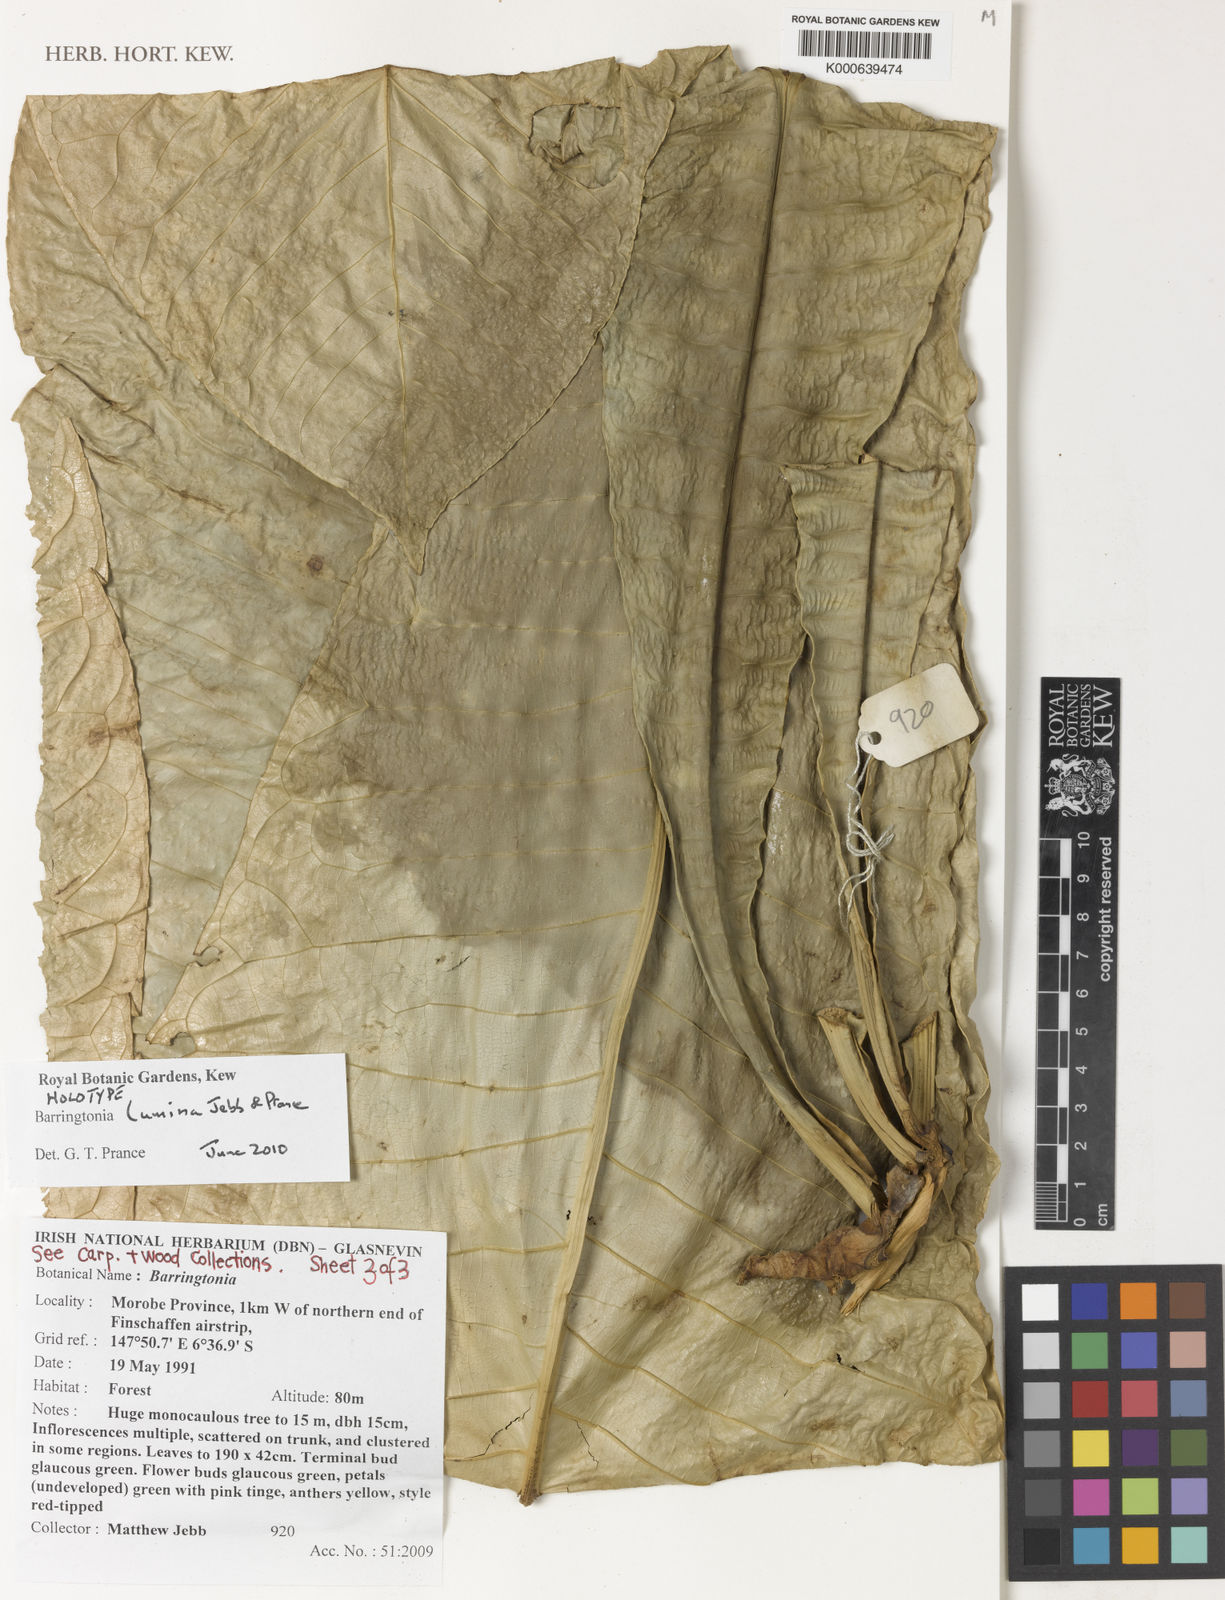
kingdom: Plantae
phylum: Tracheophyta
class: Magnoliopsida
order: Ericales
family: Lecythidaceae
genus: Barringtonia
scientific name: Barringtonia lumina
